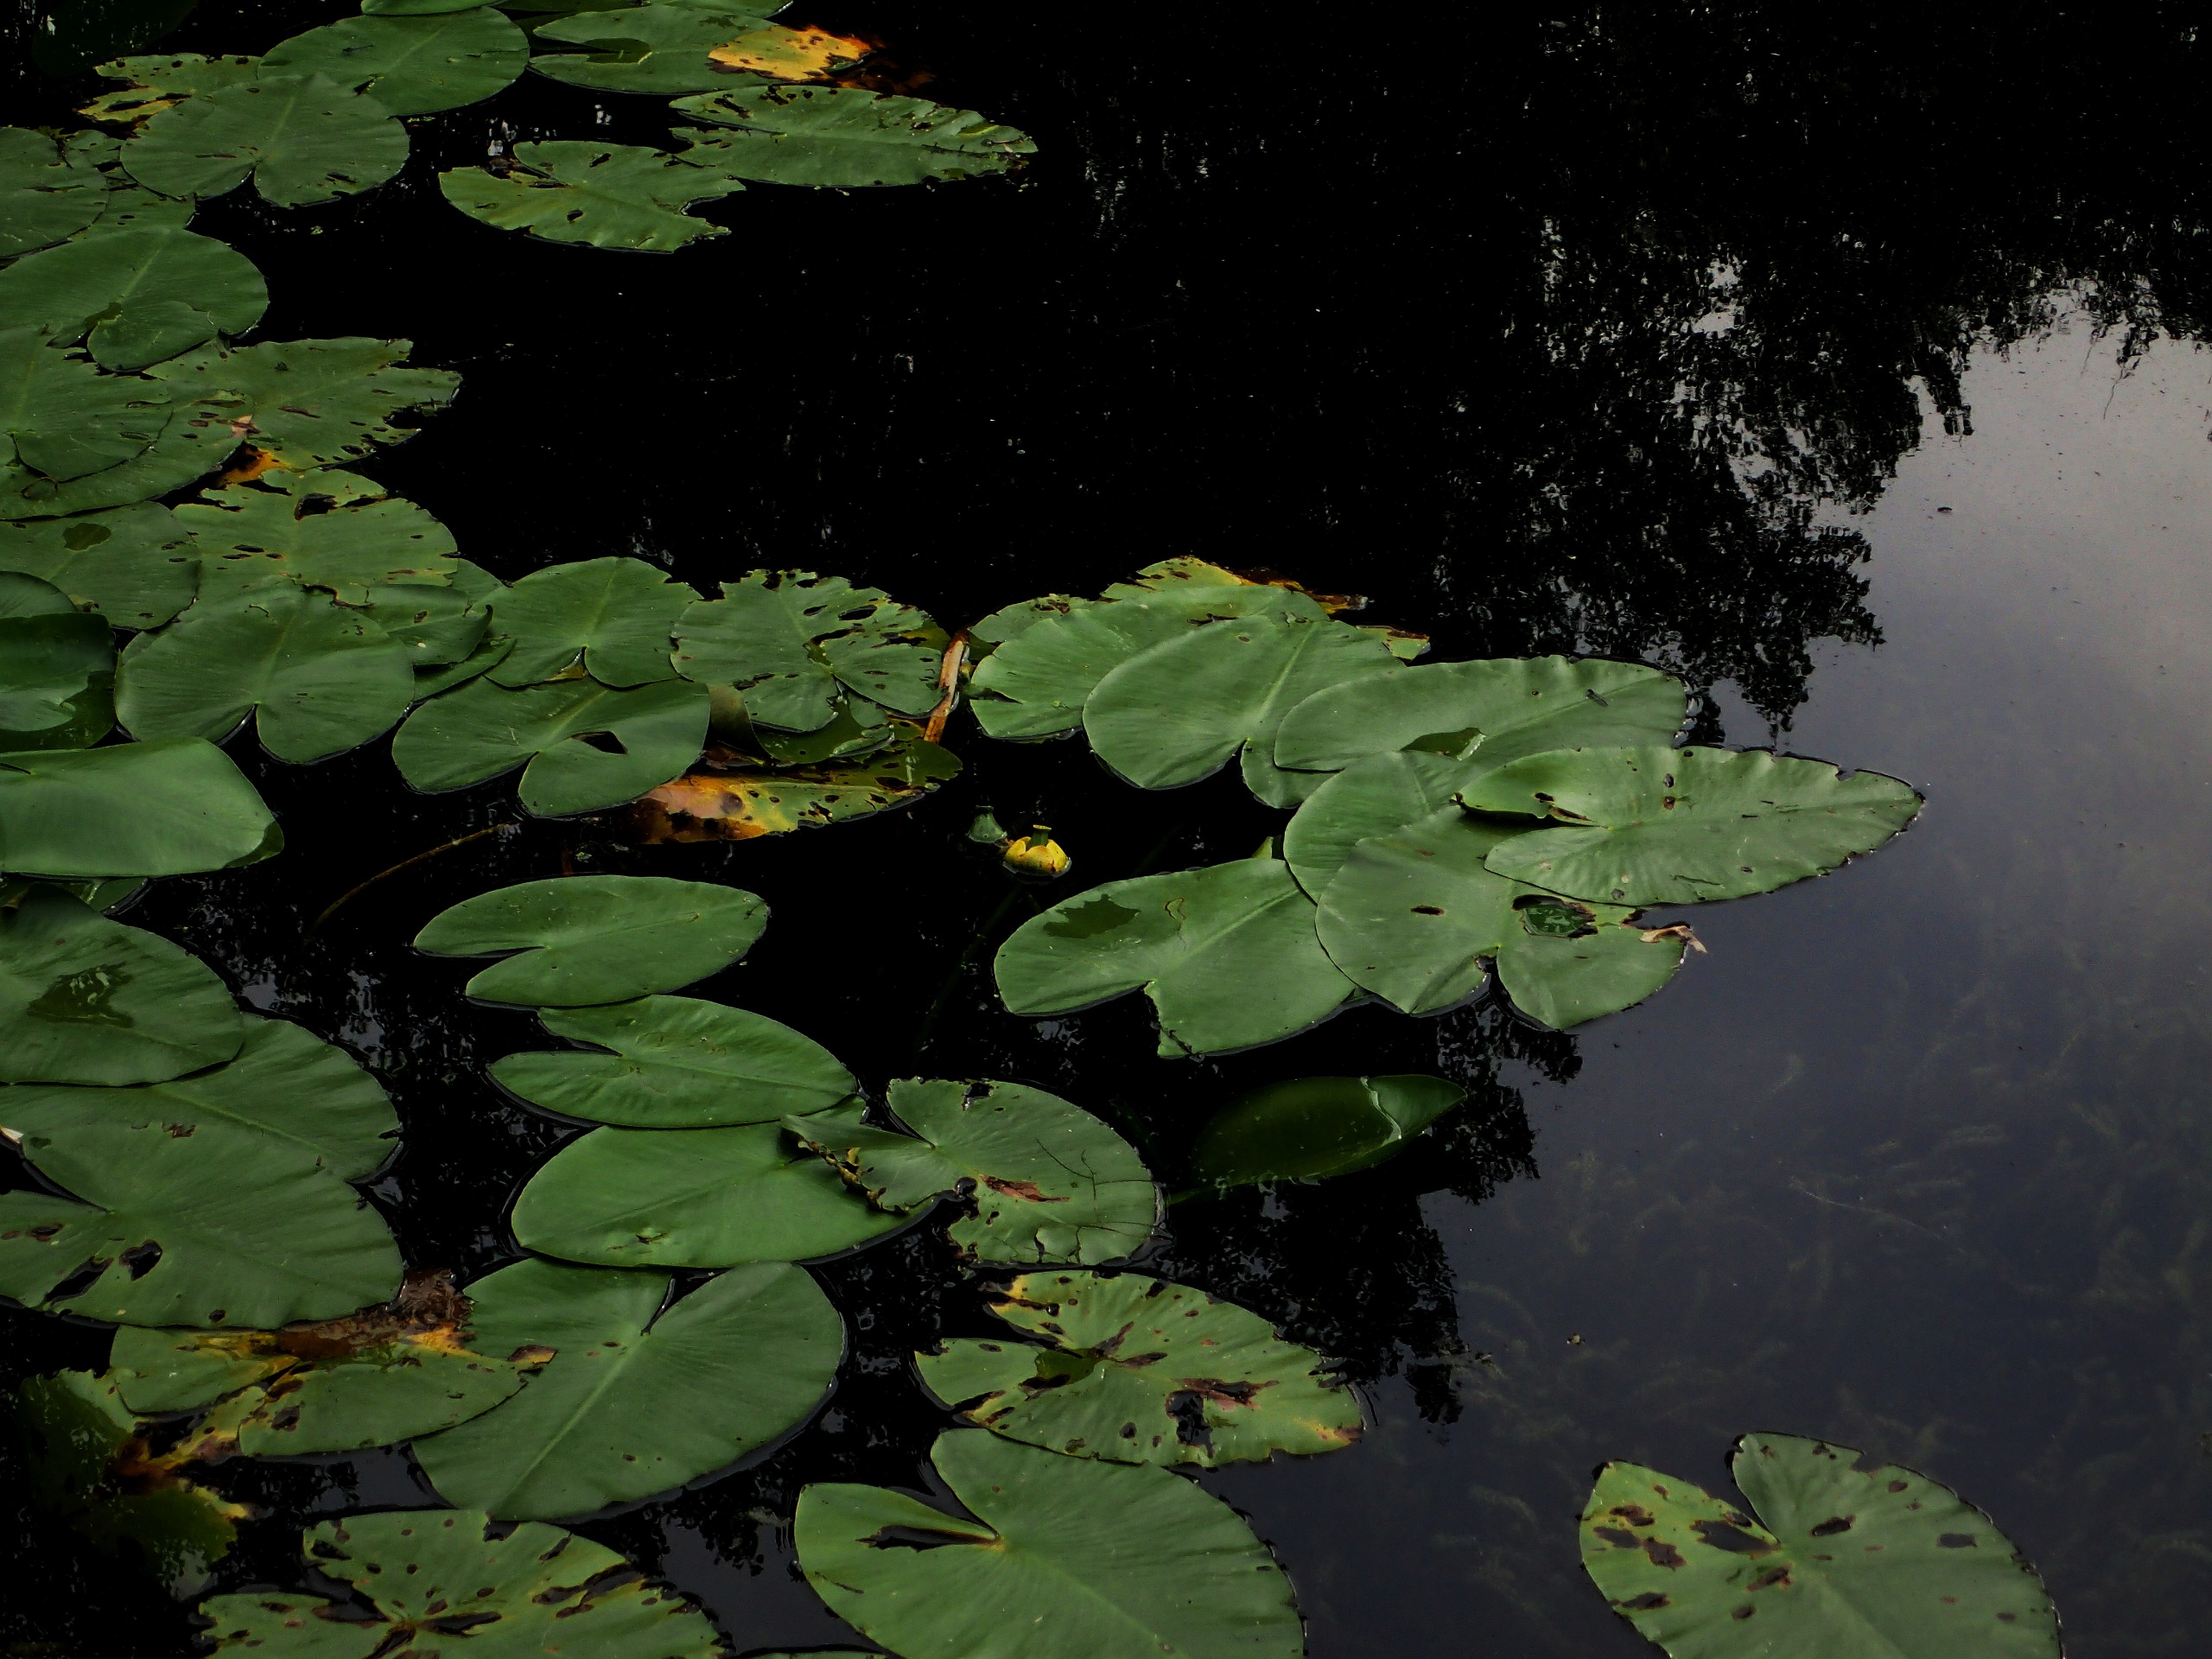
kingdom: Plantae
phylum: Tracheophyta
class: Magnoliopsida
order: Nymphaeales
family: Nymphaeaceae
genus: Nuphar
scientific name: Nuphar lutea
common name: Gul åkande
